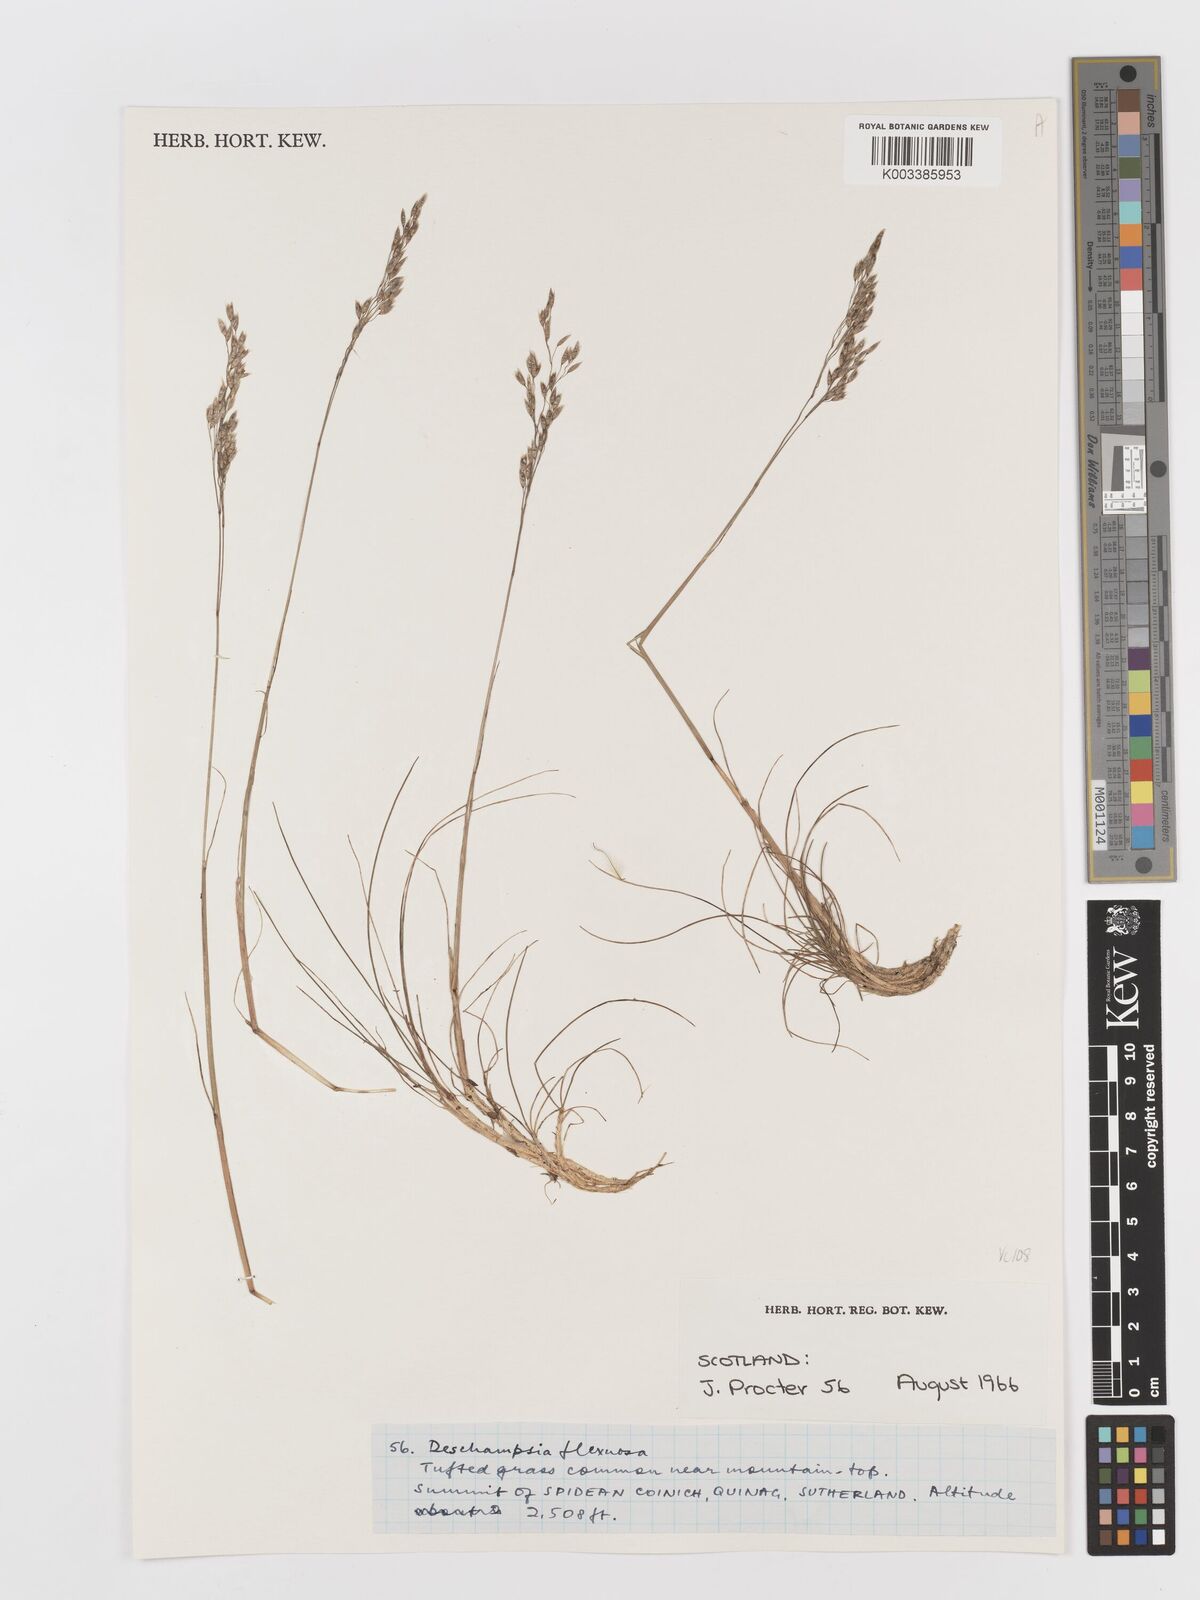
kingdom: Plantae
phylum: Tracheophyta
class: Liliopsida
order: Poales
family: Poaceae
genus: Avenella
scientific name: Avenella flexuosa
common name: Wavy hairgrass
